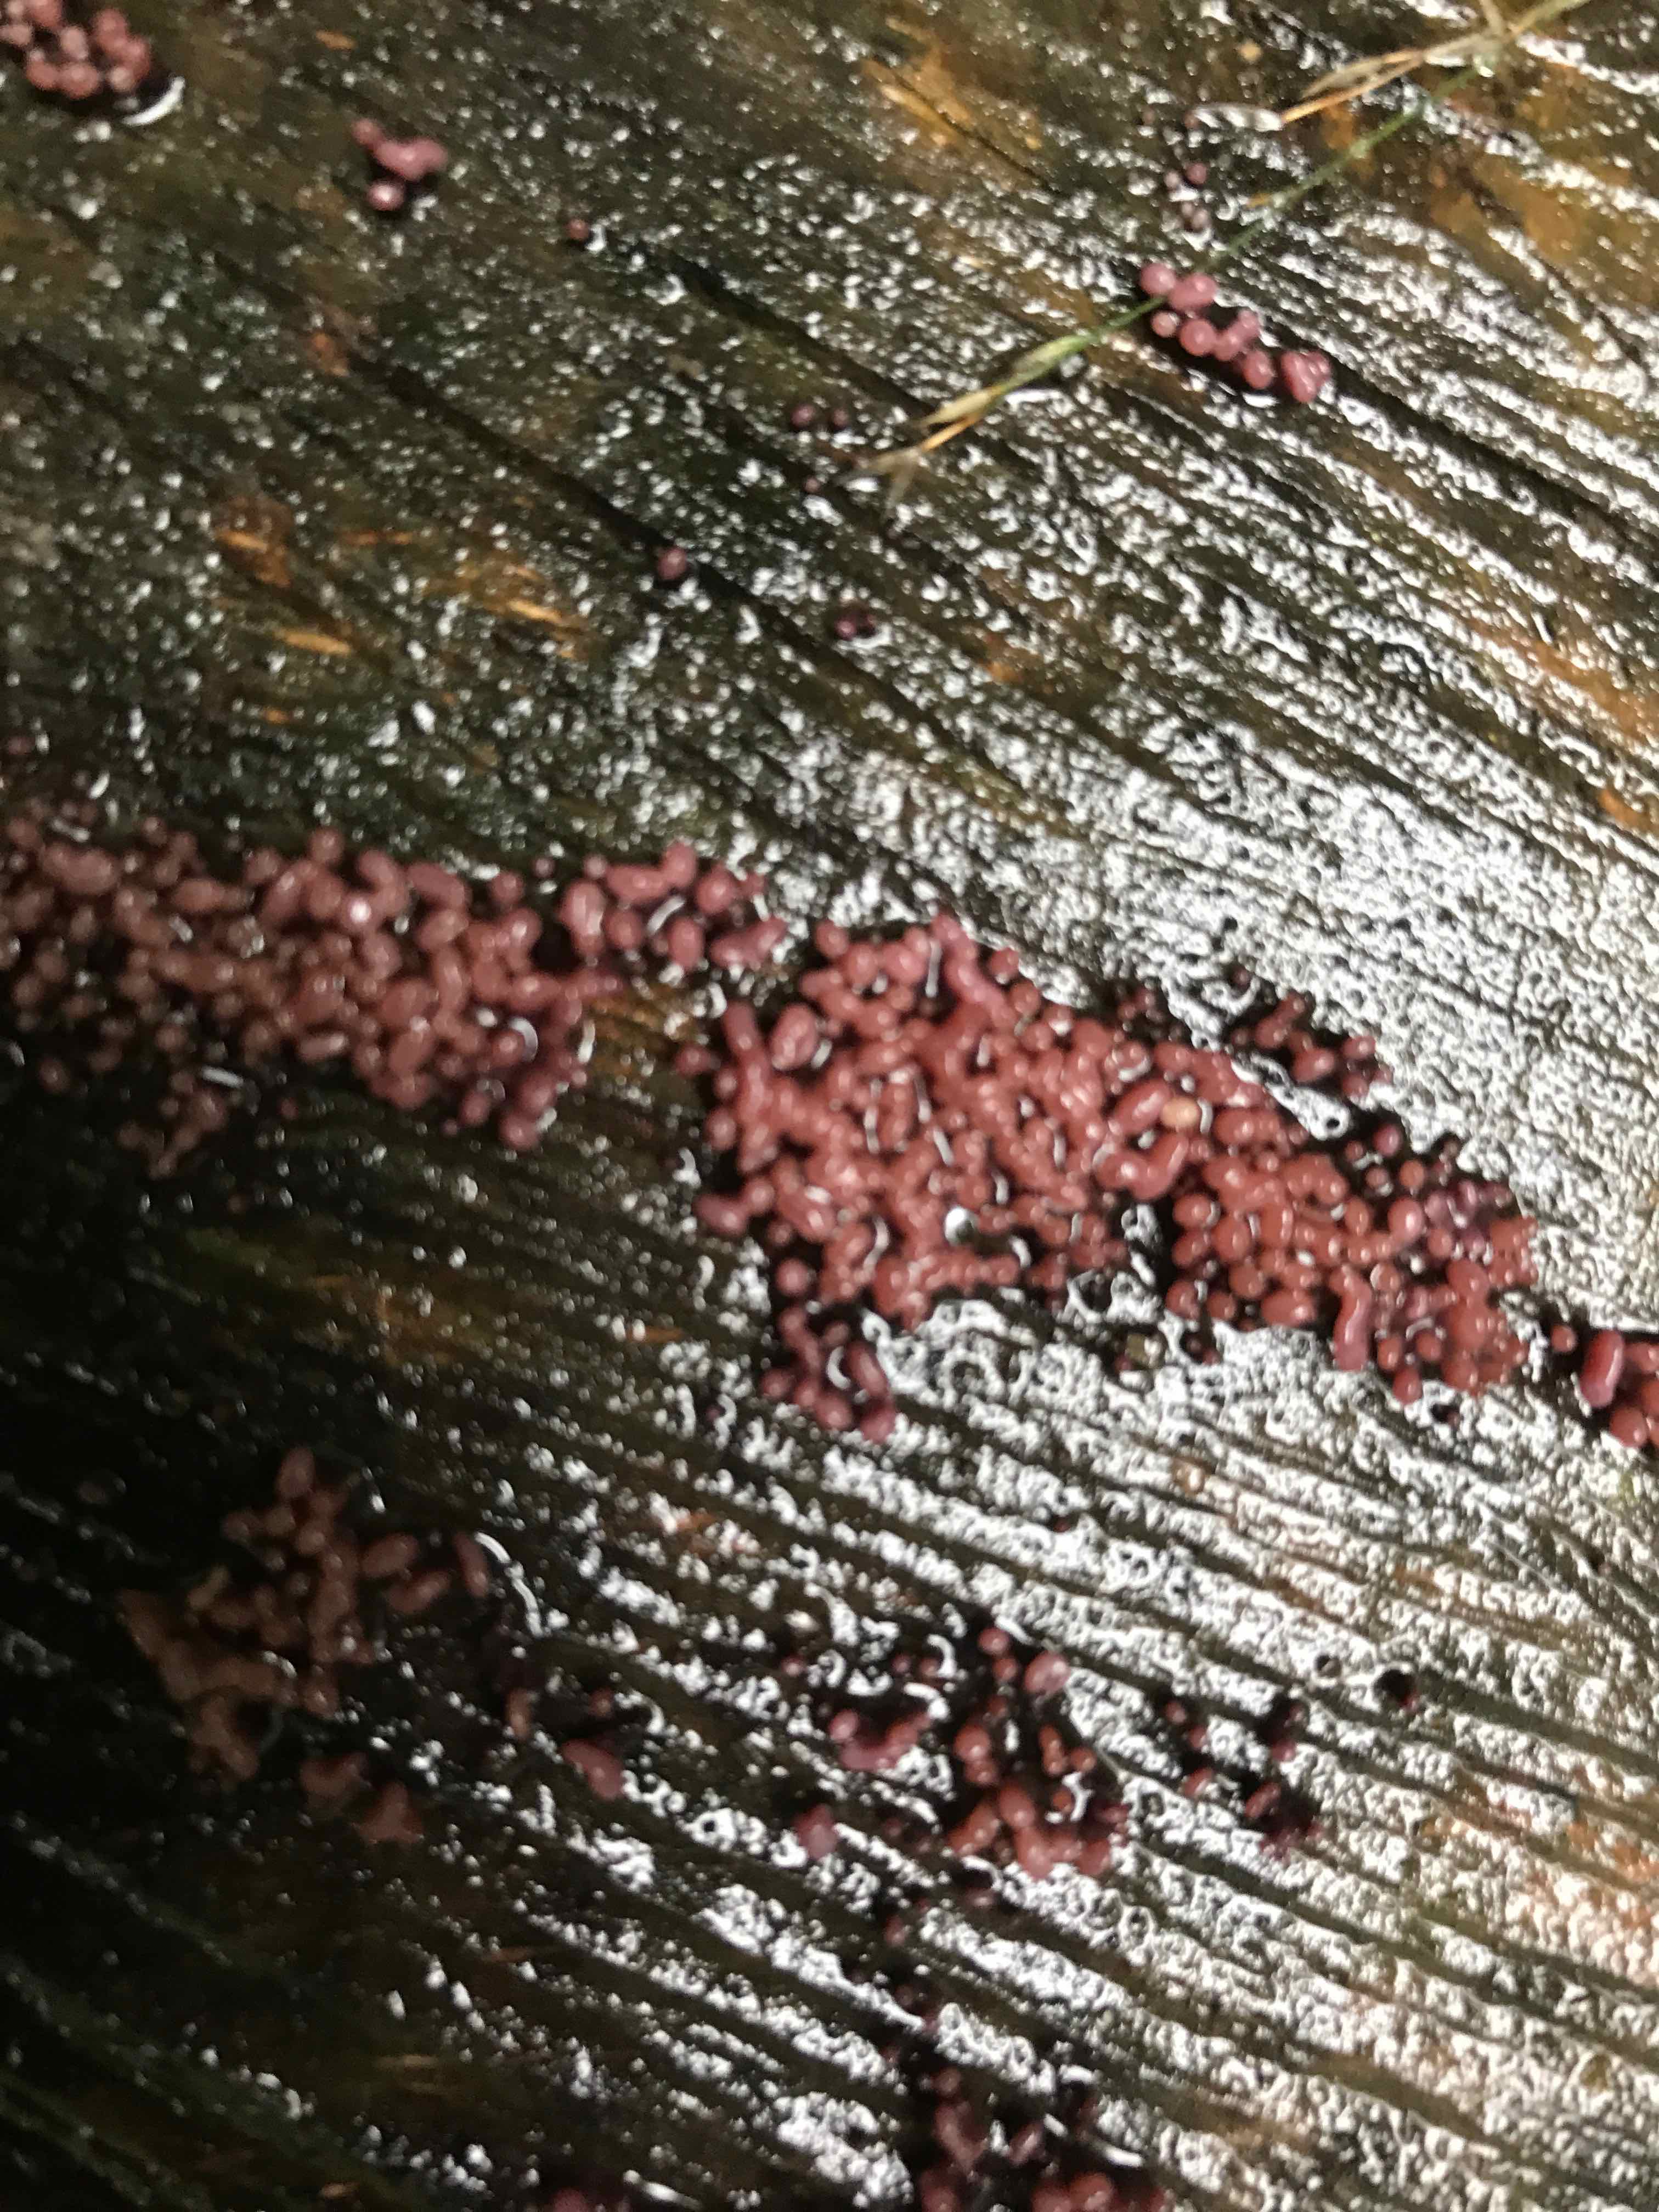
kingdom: Fungi
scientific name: Fungi
